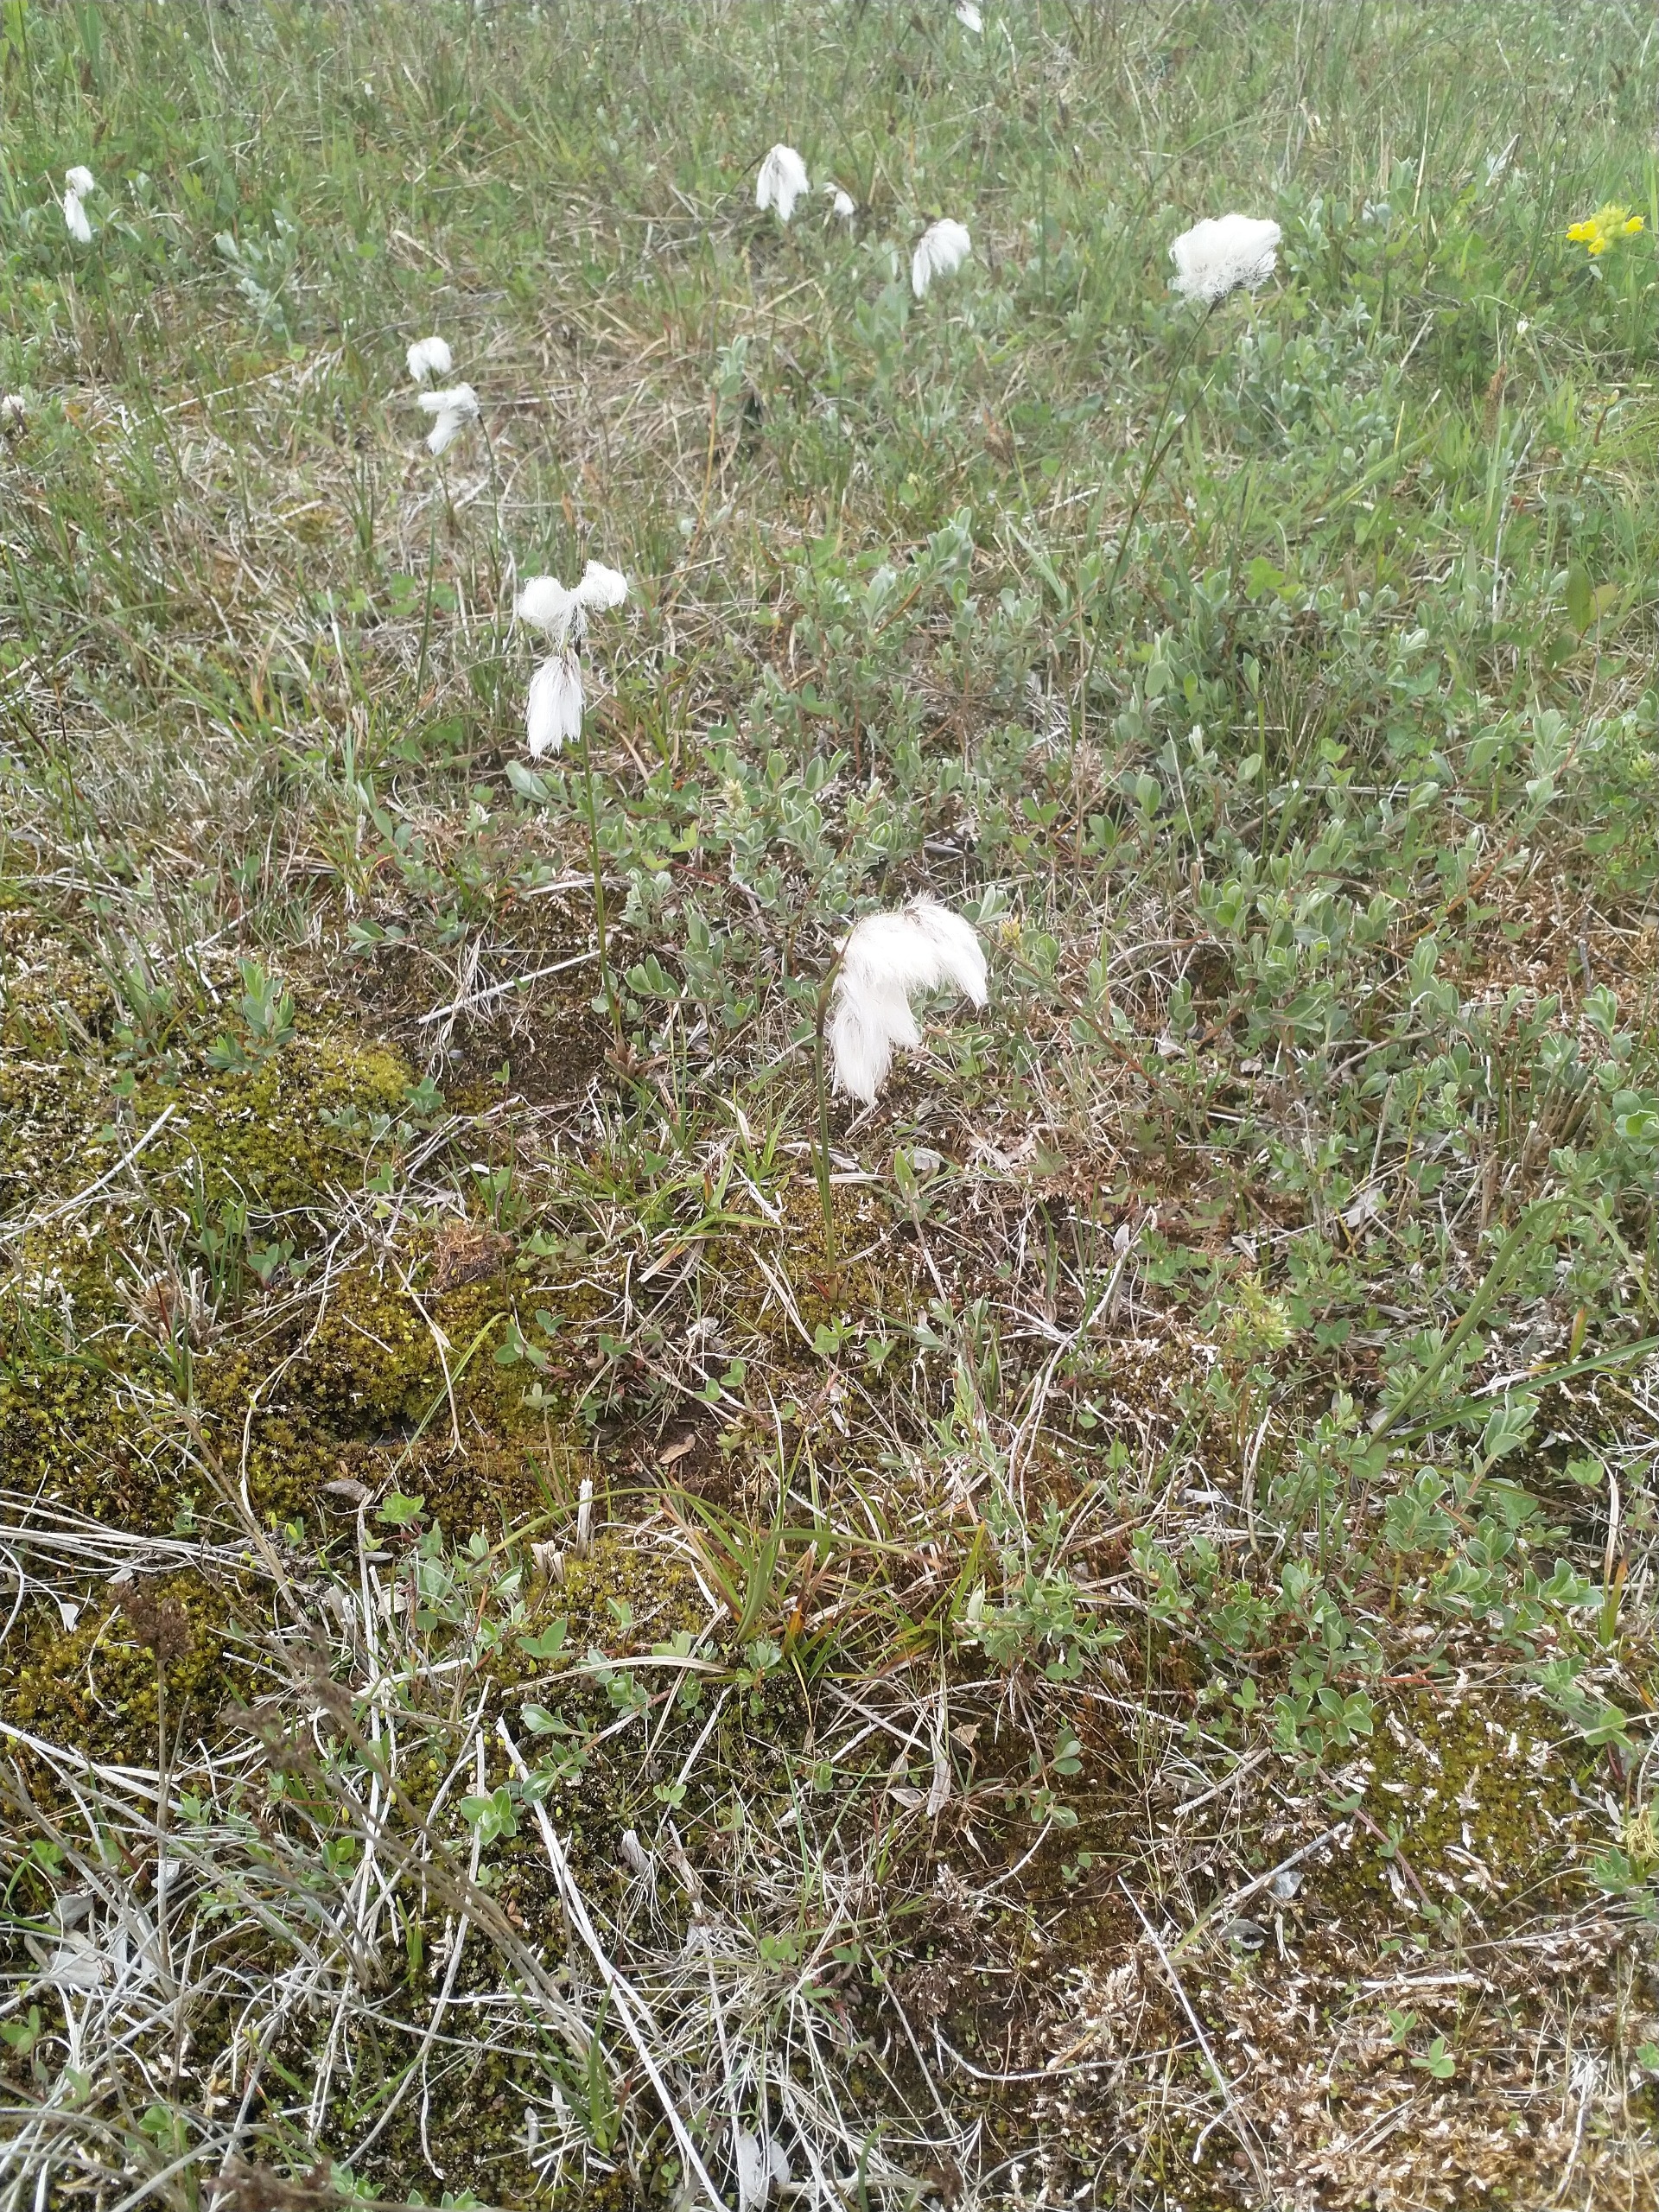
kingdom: Plantae
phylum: Tracheophyta
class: Liliopsida
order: Poales
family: Cyperaceae
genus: Eriophorum
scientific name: Eriophorum angustifolium
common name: Smalbladet kæruld
